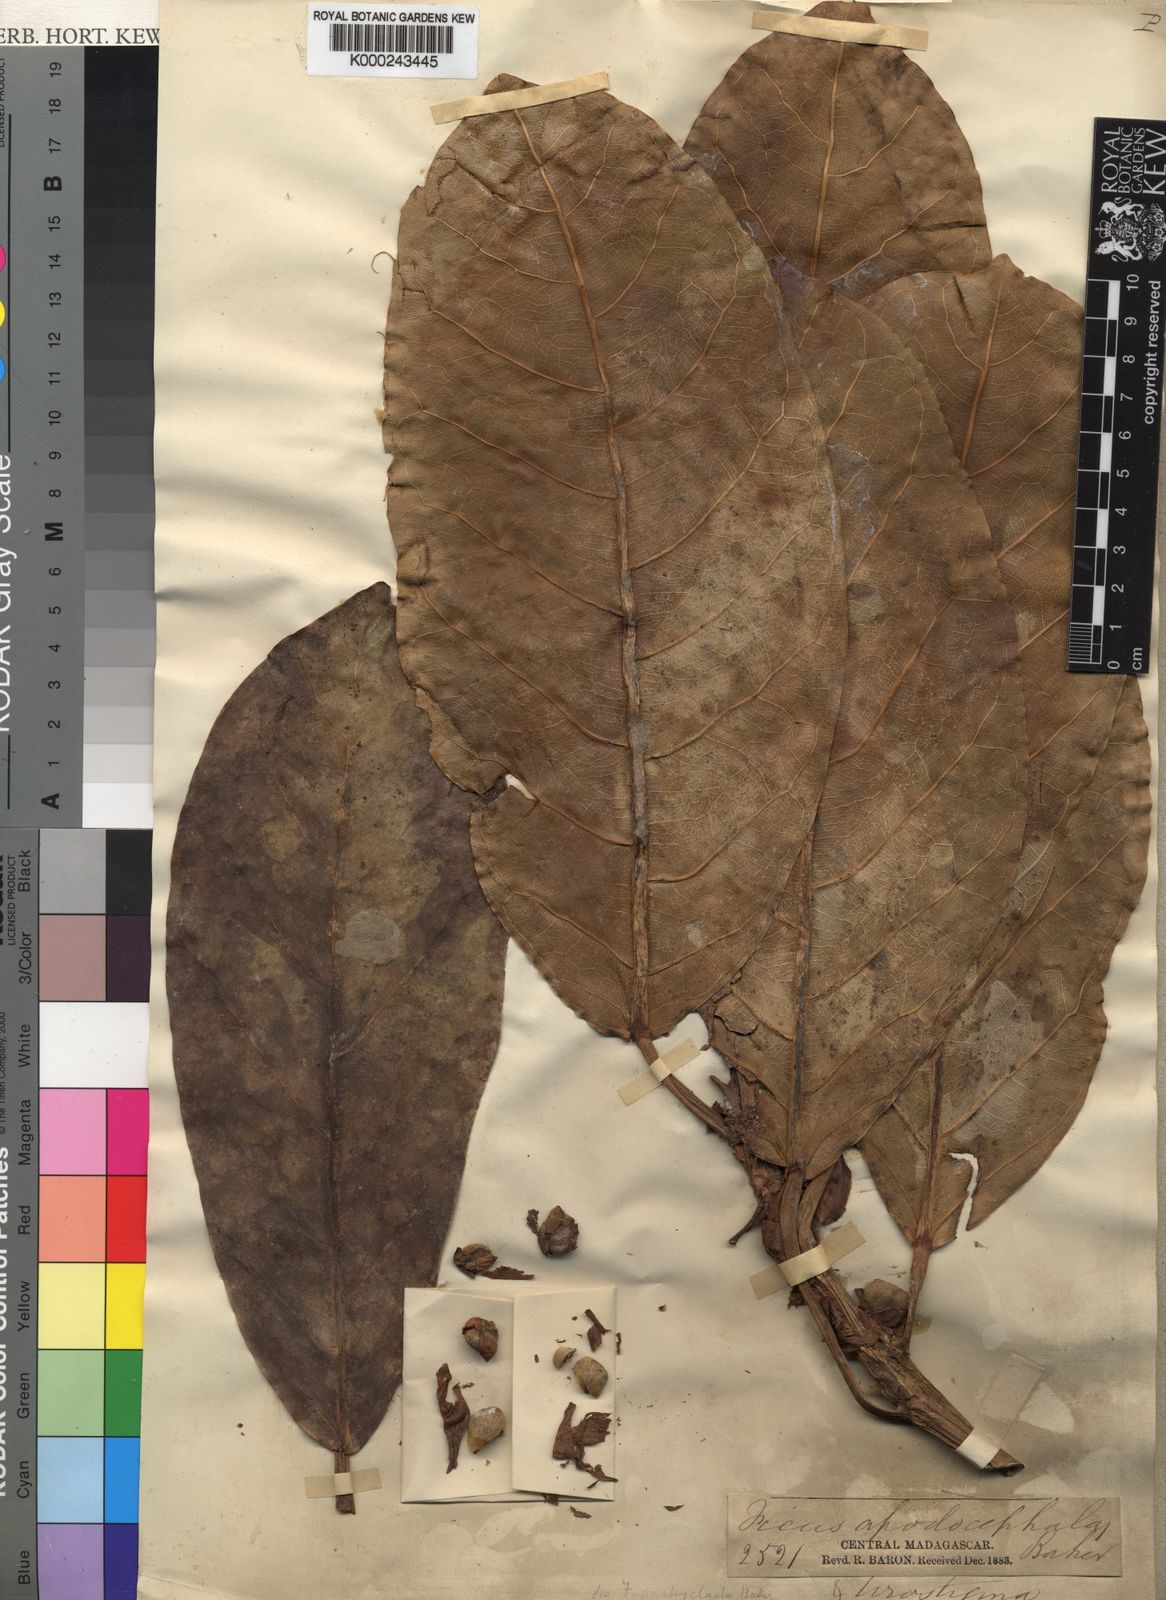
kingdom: Plantae
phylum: Tracheophyta
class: Magnoliopsida
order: Rosales
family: Moraceae
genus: Ficus
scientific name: Ficus lutea
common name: Giant-leaved fig
